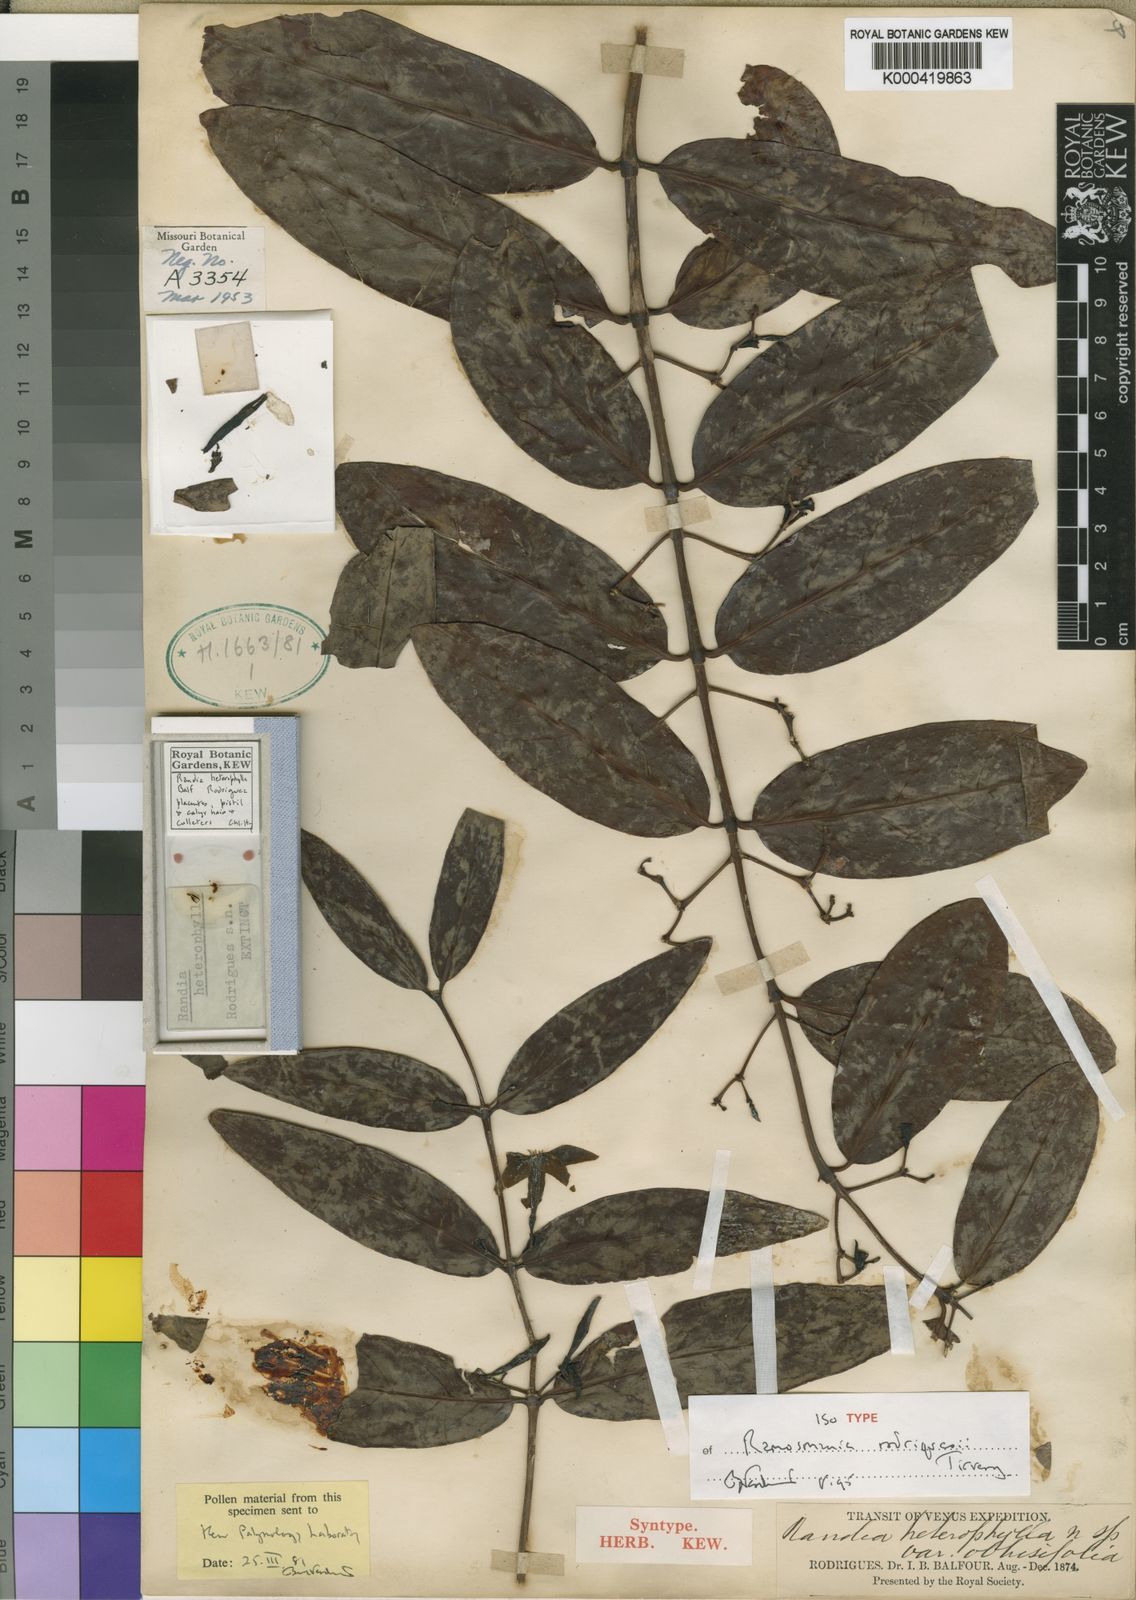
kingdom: Plantae
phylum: Tracheophyta
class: Magnoliopsida
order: Gentianales
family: Rubiaceae
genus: Ramosmania
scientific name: Ramosmania rodriguesii
